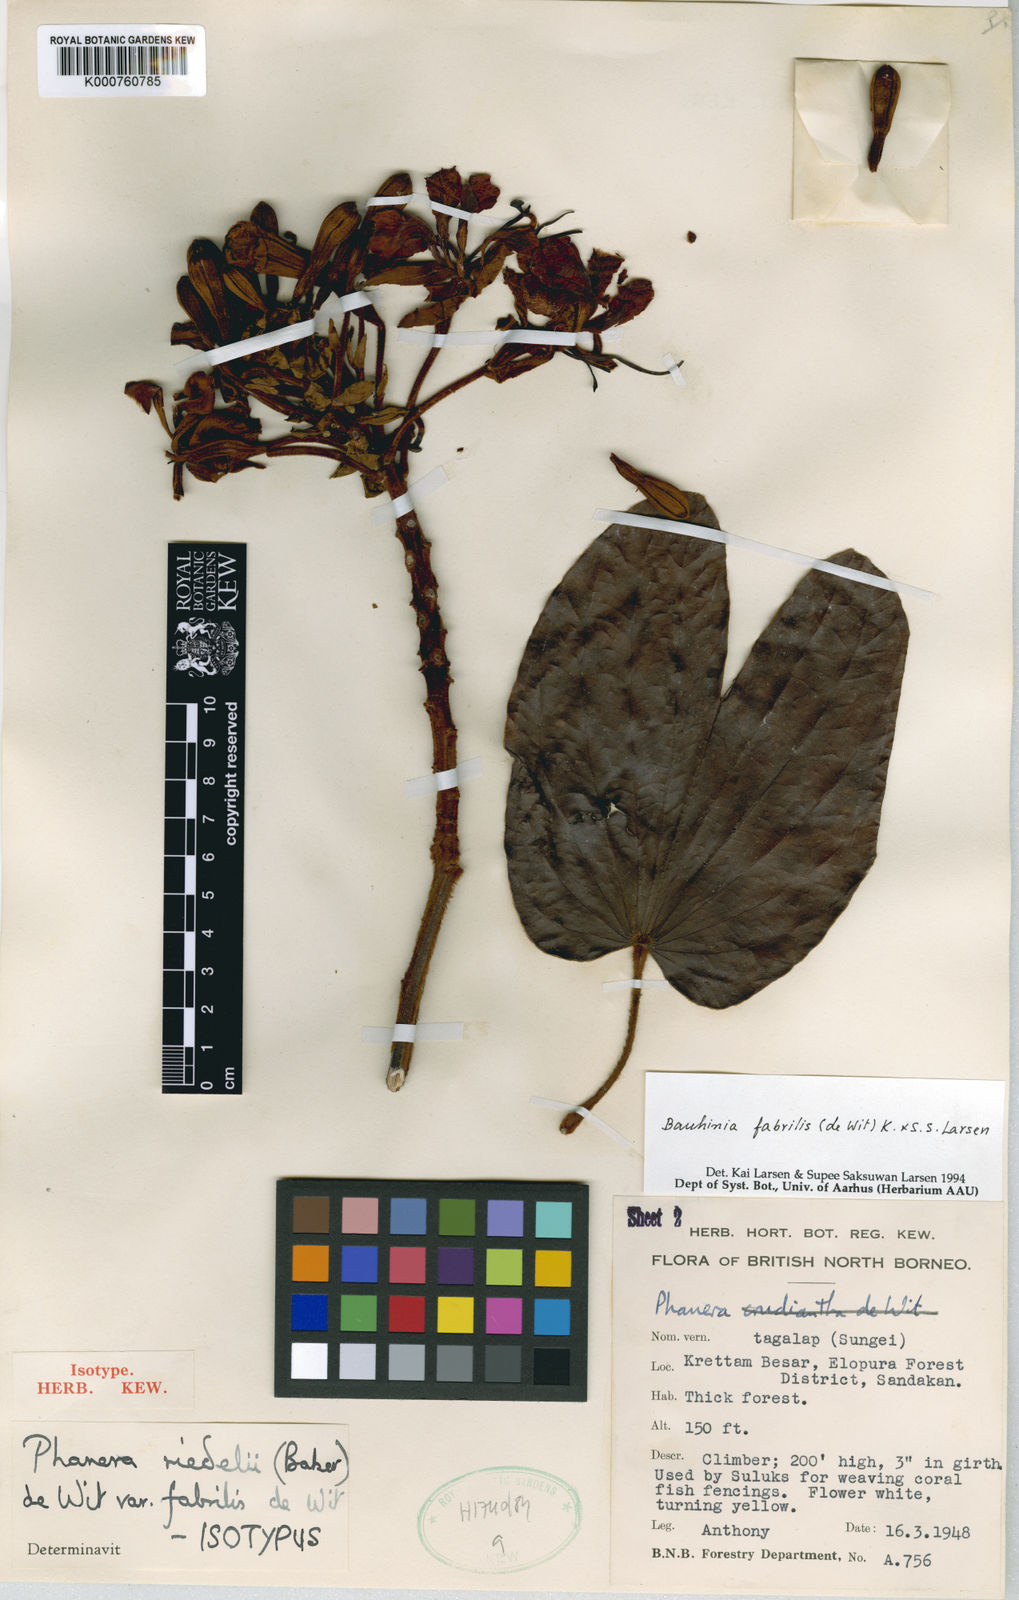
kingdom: Plantae
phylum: Tracheophyta
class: Magnoliopsida
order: Fabales
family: Fabaceae
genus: Phanera
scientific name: Phanera fabrilis
